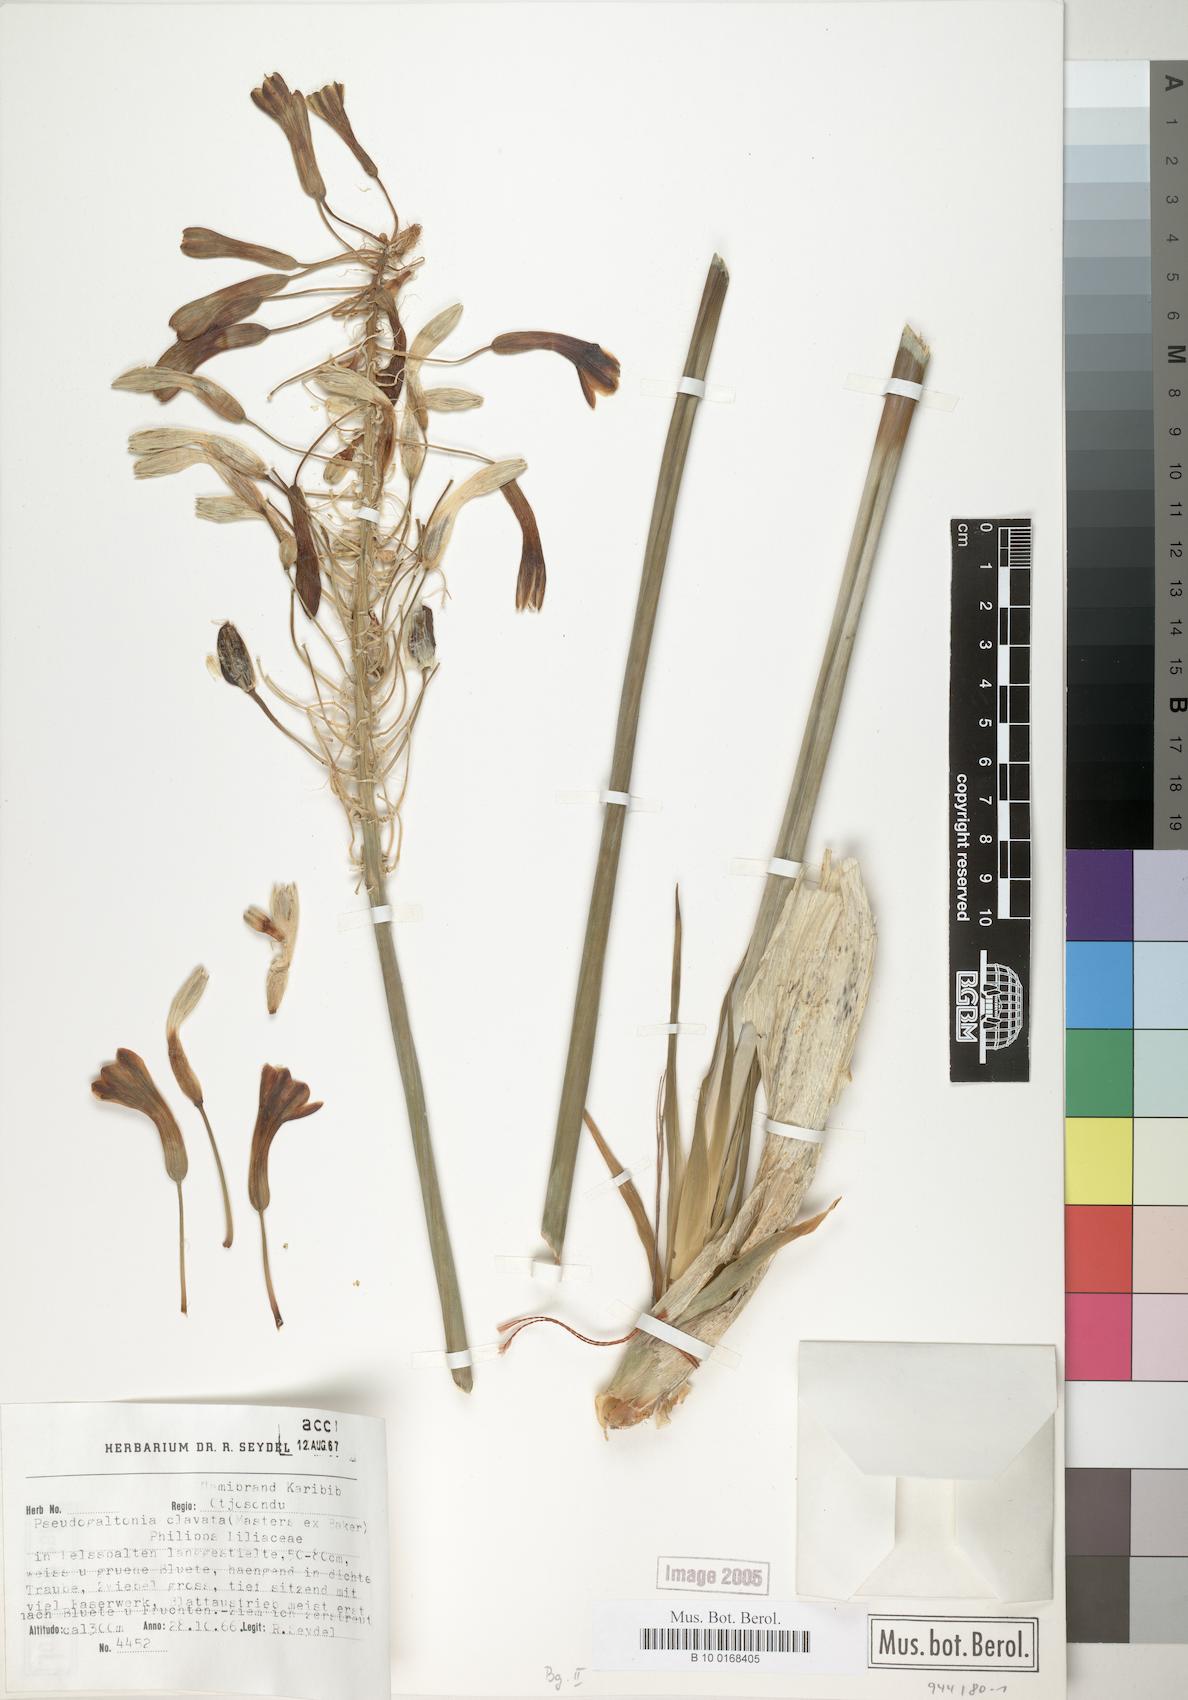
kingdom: Plantae
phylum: Tracheophyta
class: Liliopsida
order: Asparagales
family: Asparagaceae
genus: Pseudogaltonia
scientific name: Pseudogaltonia clavata
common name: South west african slangkop
